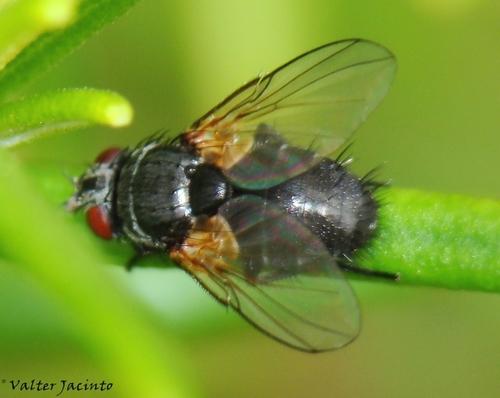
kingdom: Animalia
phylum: Arthropoda
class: Insecta
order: Diptera
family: Tachinidae
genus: Phytomyptera
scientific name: Phytomyptera
